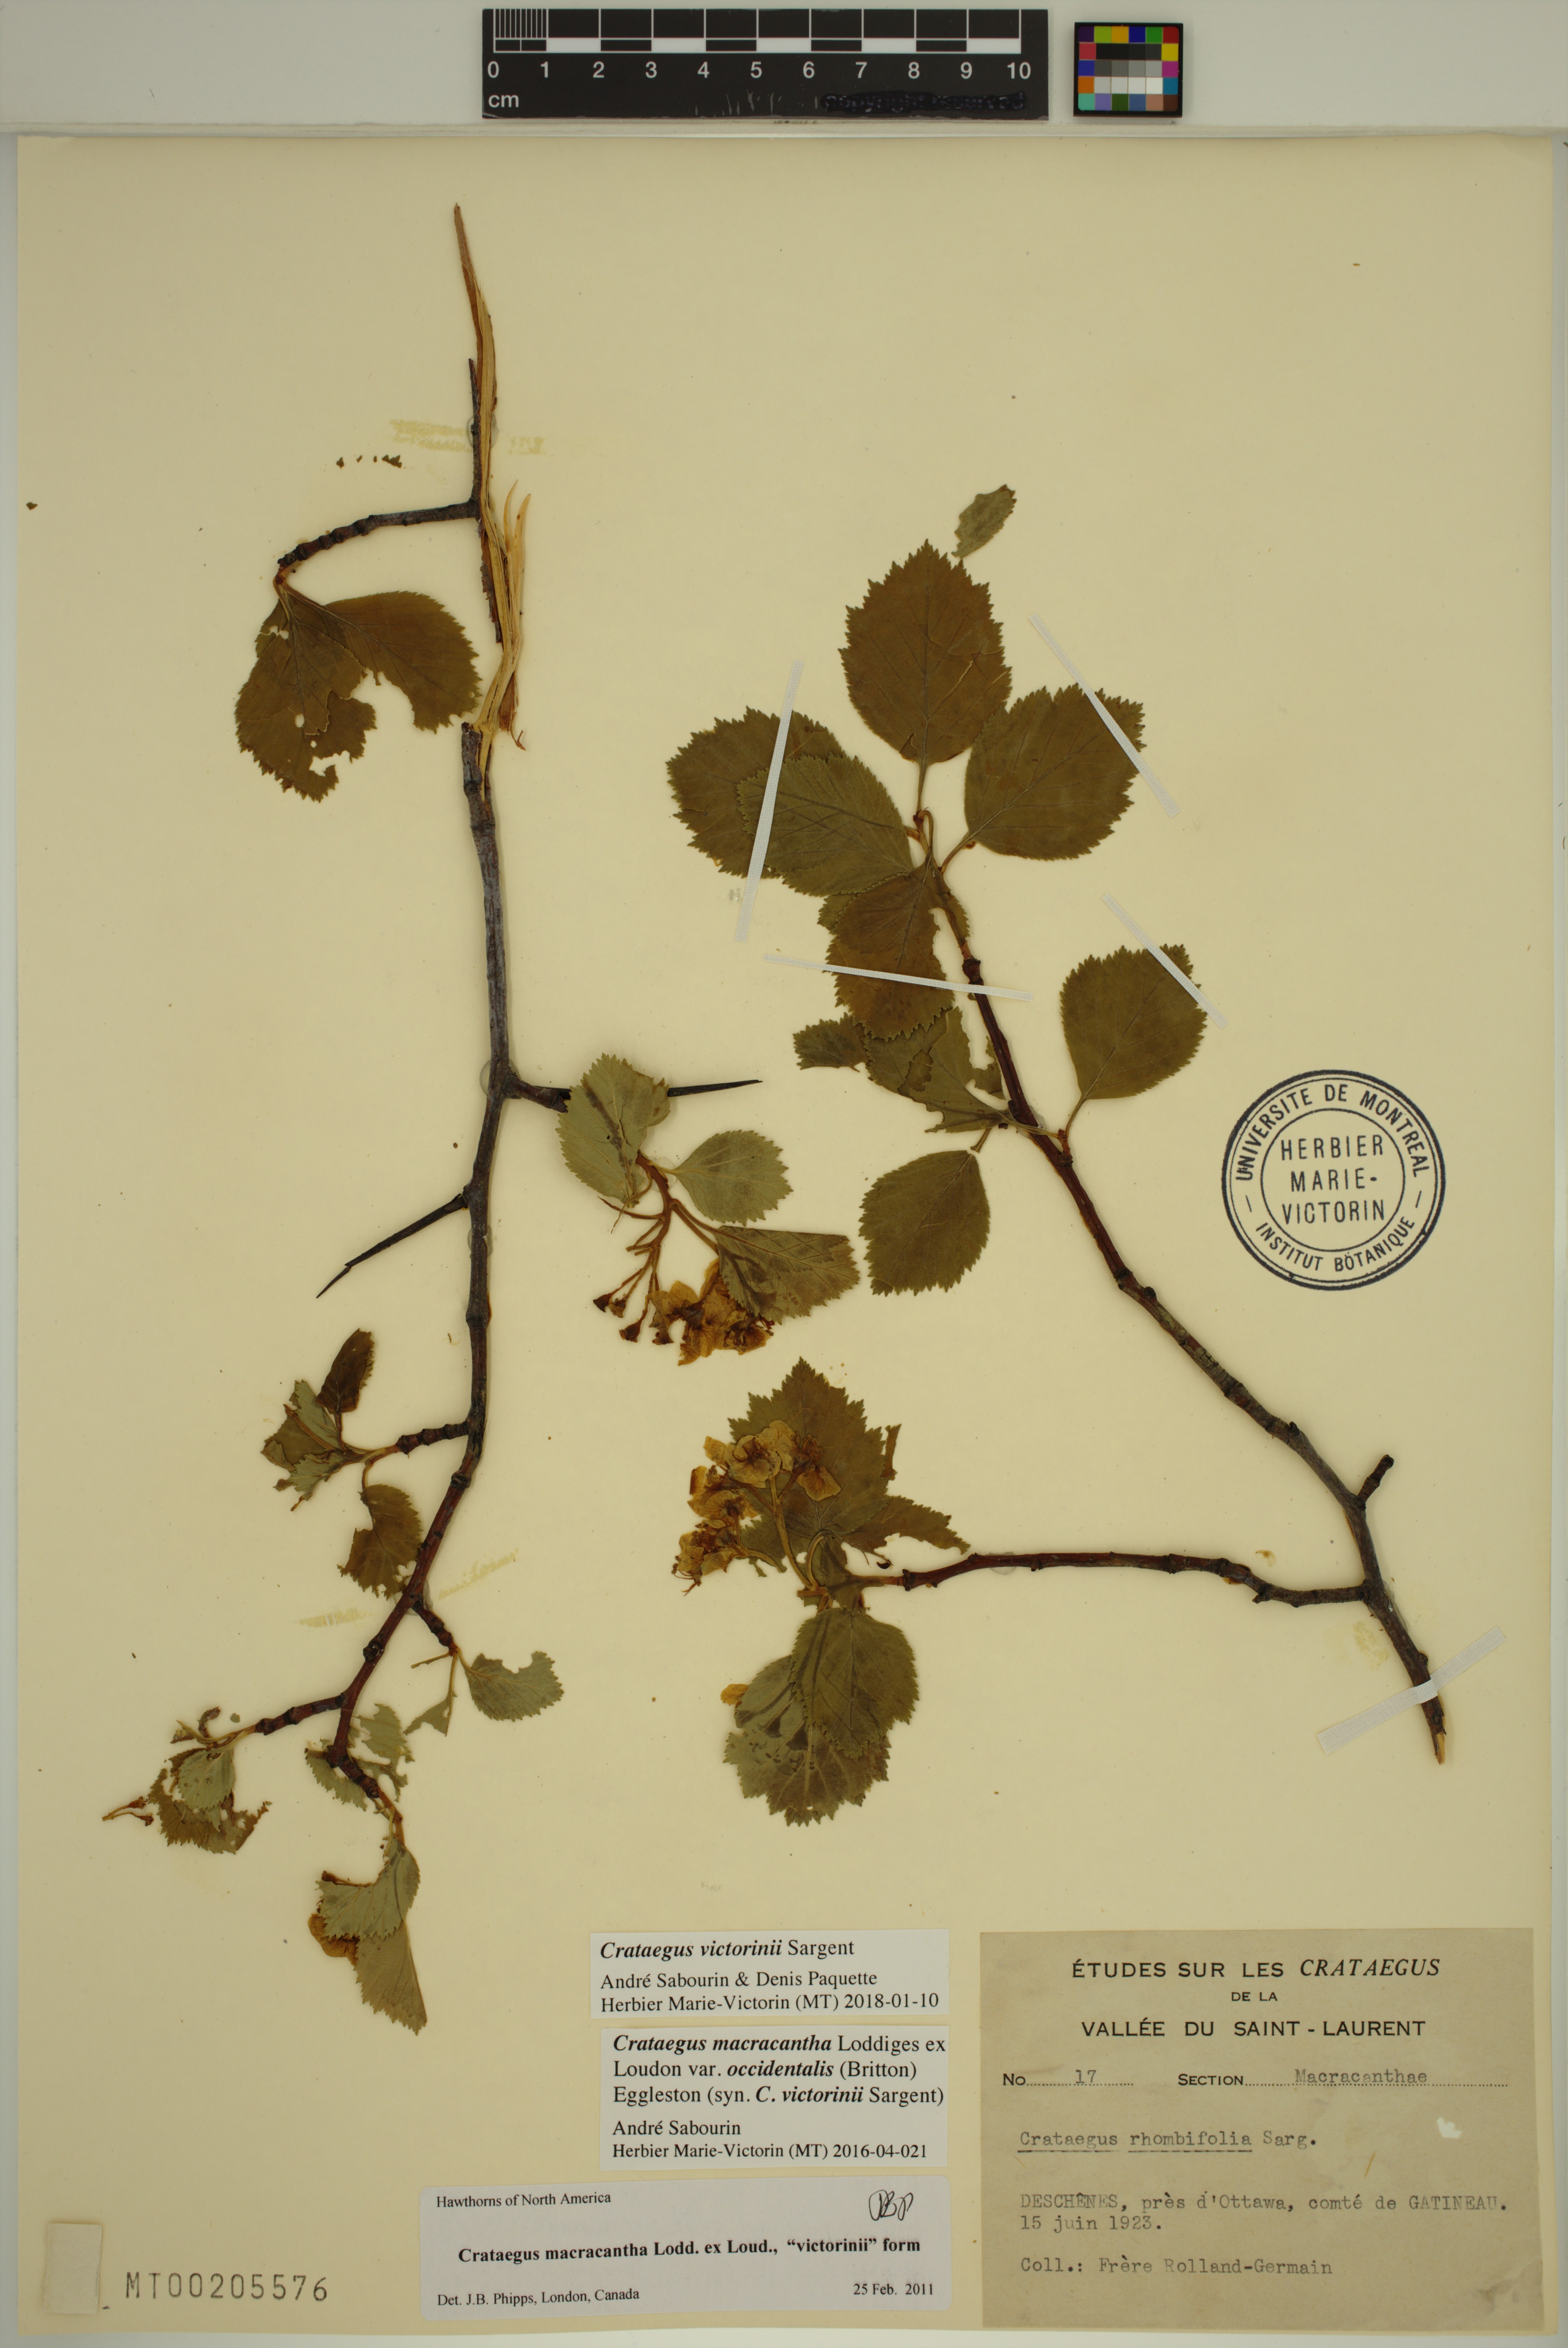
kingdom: Plantae
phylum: Tracheophyta
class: Magnoliopsida
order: Rosales
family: Rosaceae
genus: Crataegus
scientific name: Crataegus macracantha
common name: Large-thorn hawthorn
